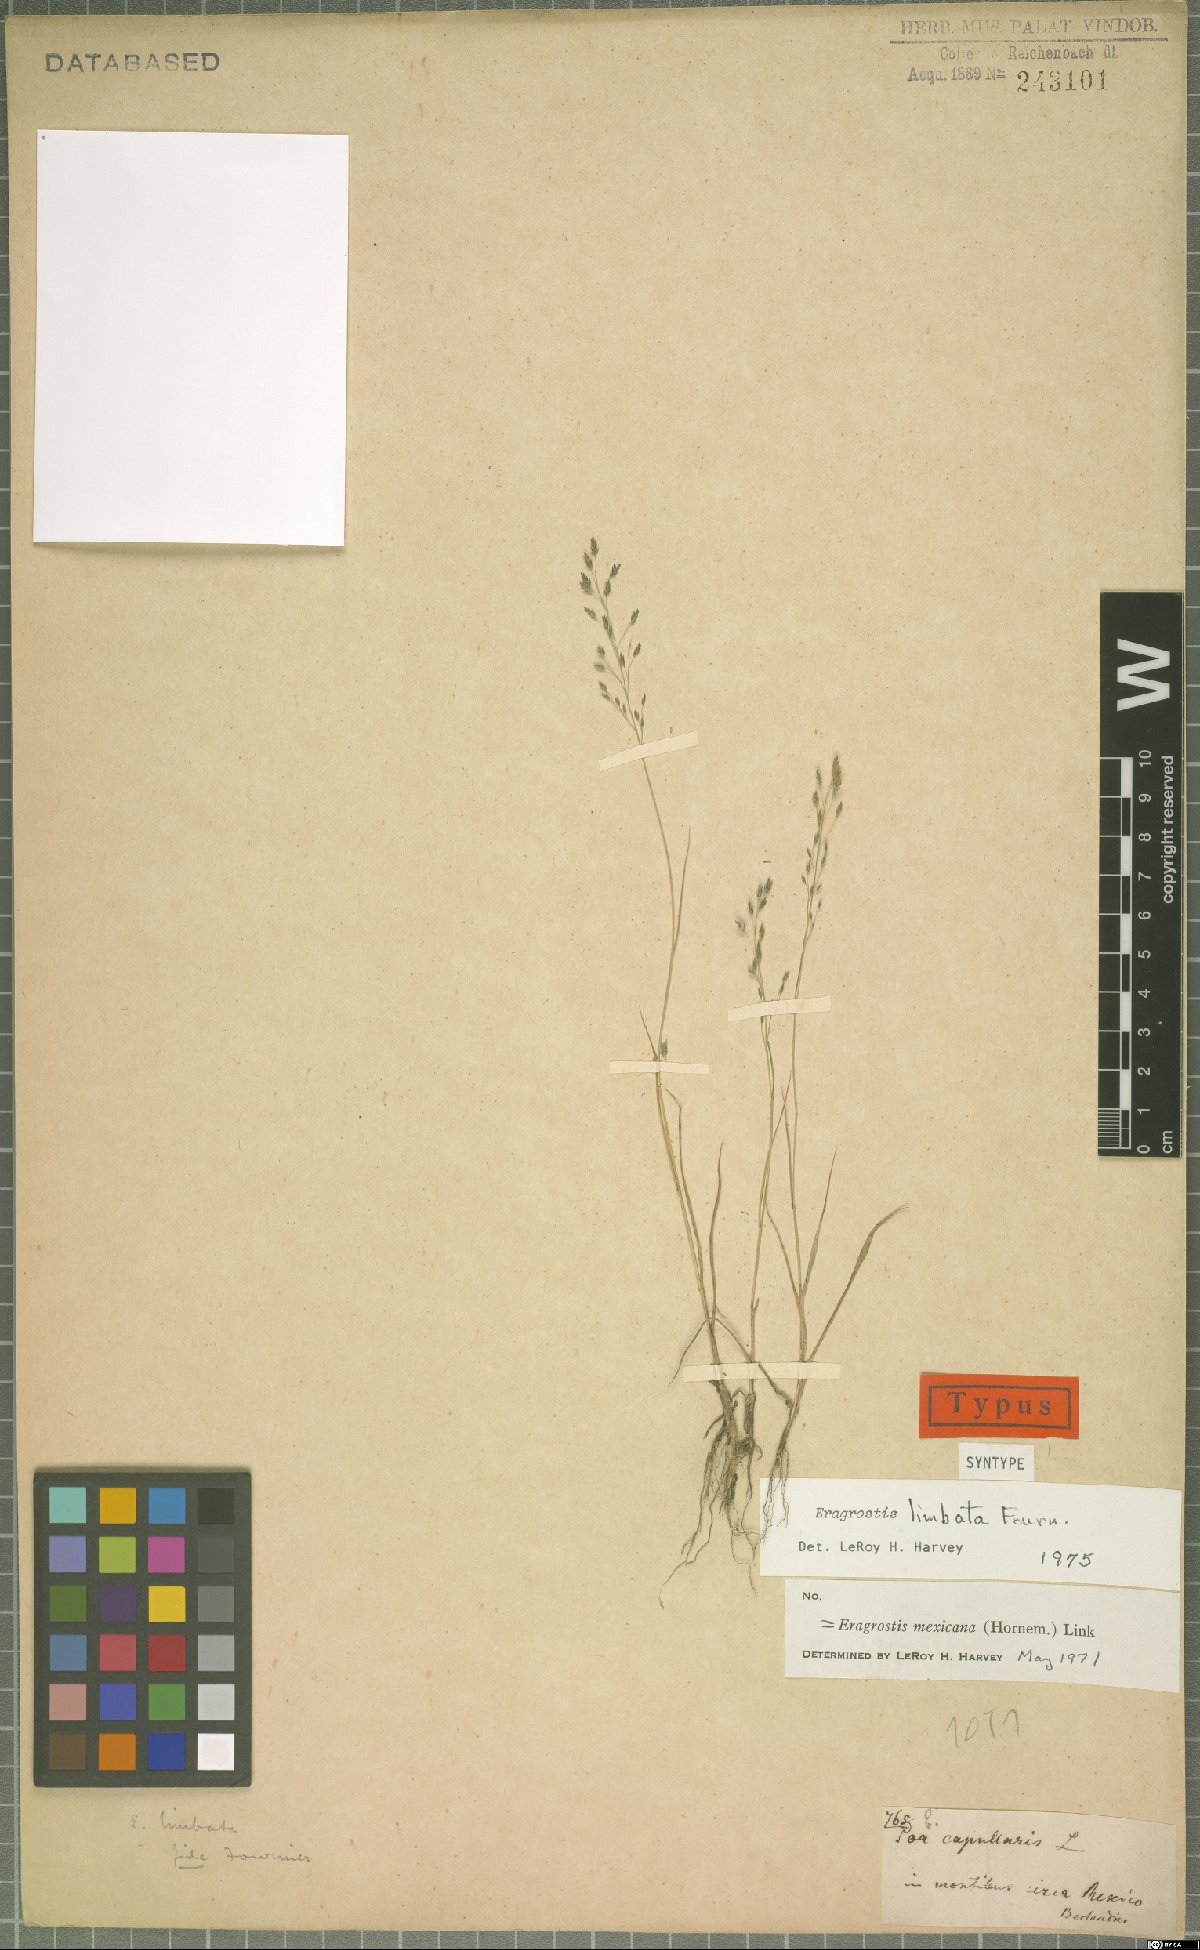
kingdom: Plantae
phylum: Tracheophyta
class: Liliopsida
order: Poales
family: Poaceae
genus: Eragrostis
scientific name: Eragrostis mexicana
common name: Mexican love grass
